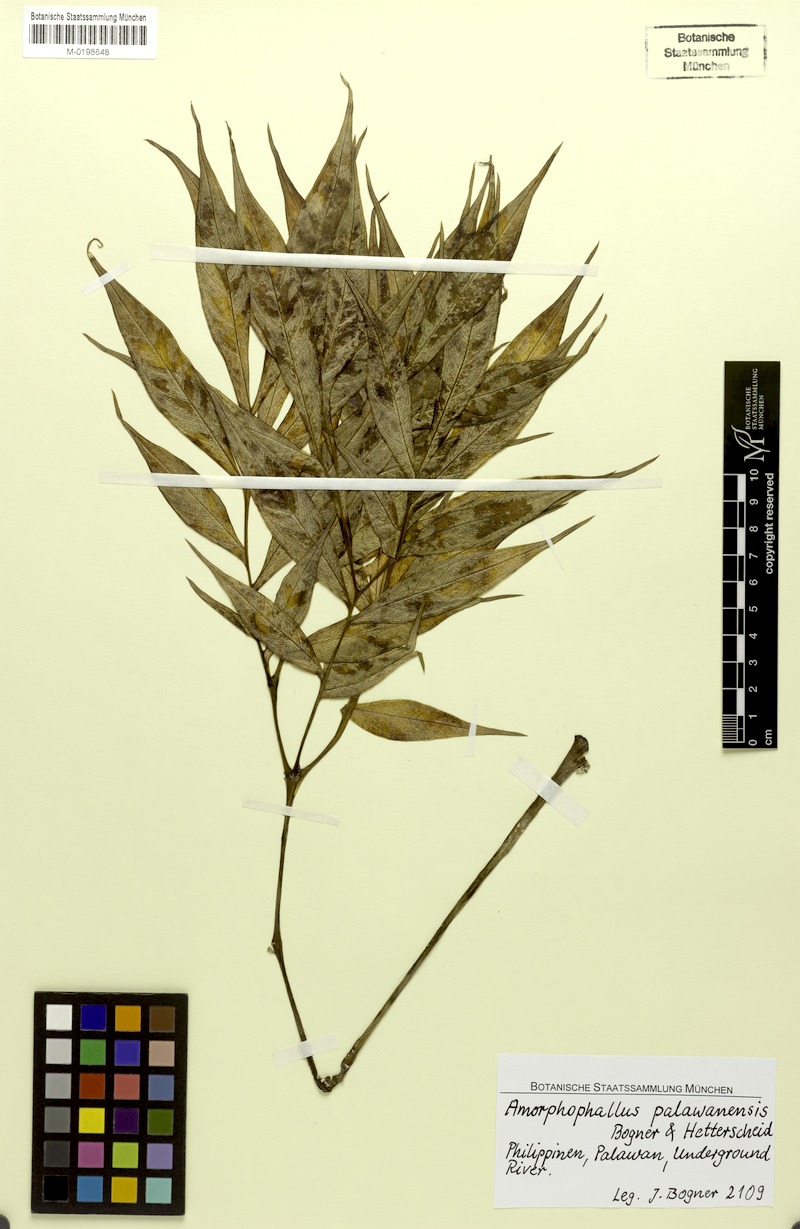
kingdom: Plantae
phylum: Tracheophyta
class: Liliopsida
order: Alismatales
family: Araceae
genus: Amorphophallus
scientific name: Amorphophallus palawanensis
